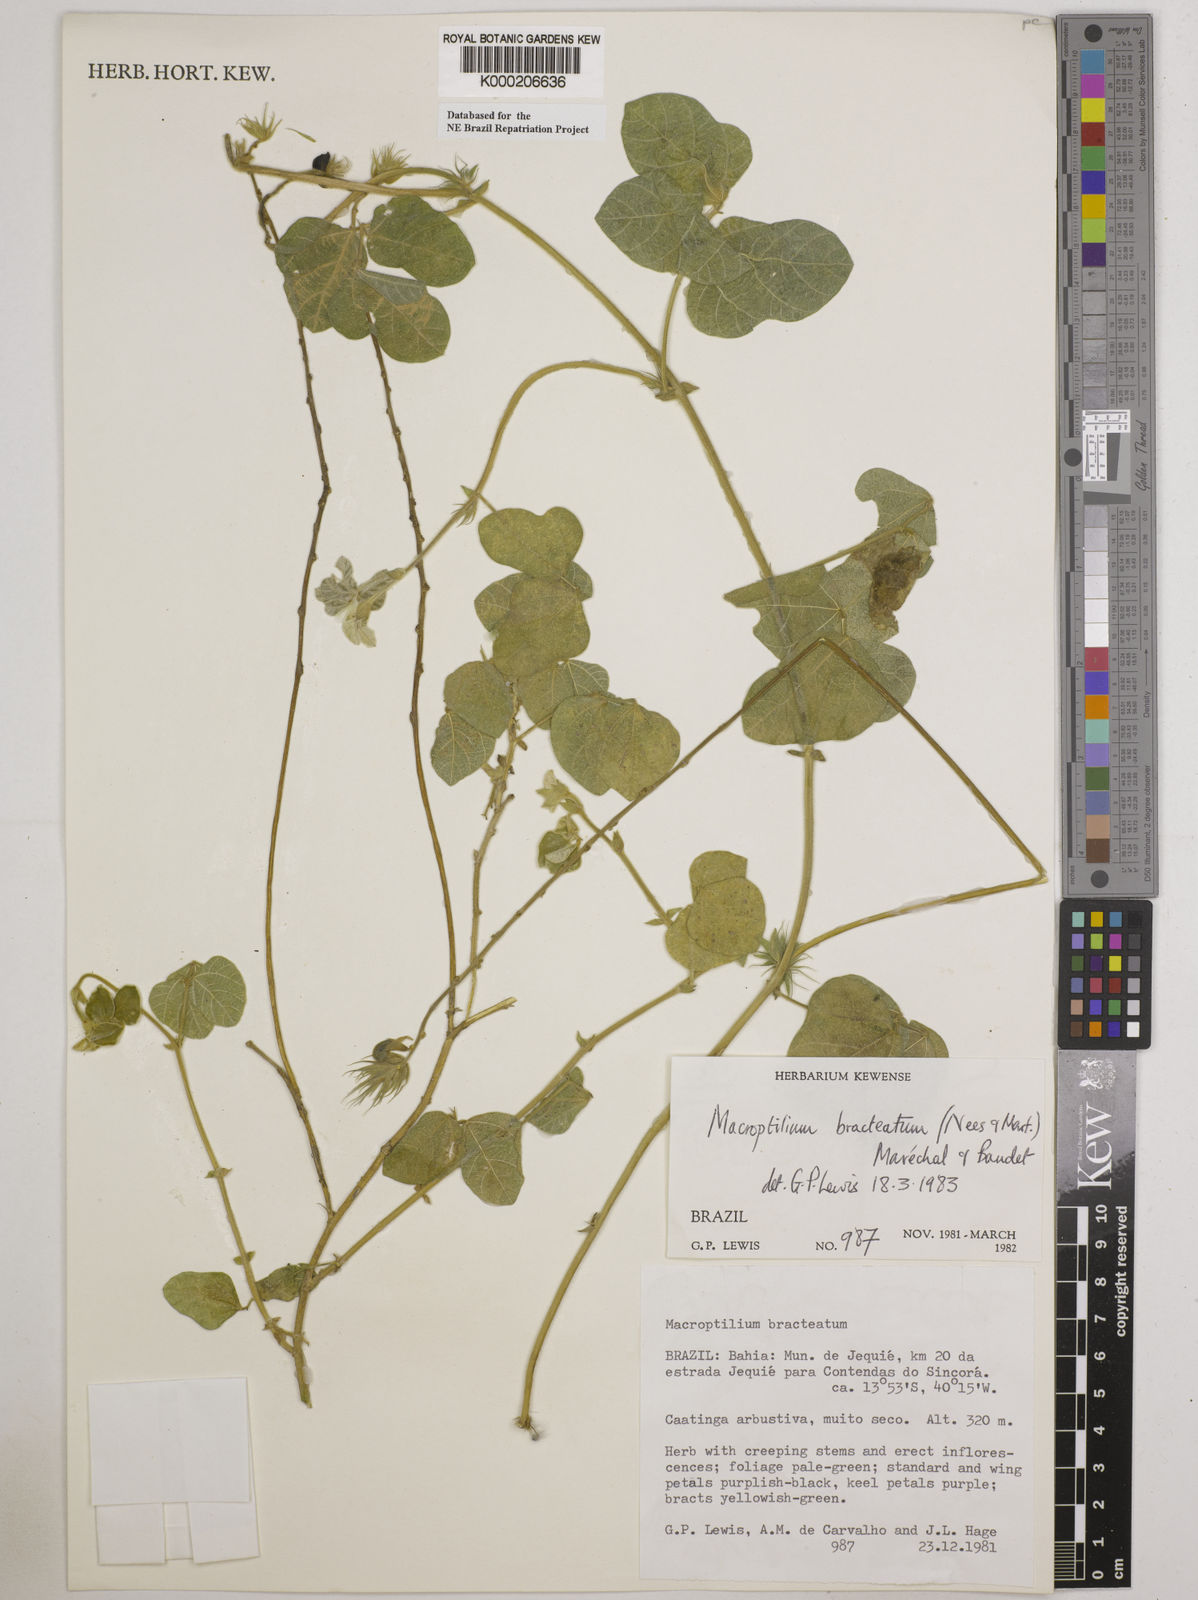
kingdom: Plantae
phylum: Tracheophyta
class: Magnoliopsida
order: Fabales
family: Fabaceae
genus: Macroptilium
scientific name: Macroptilium
